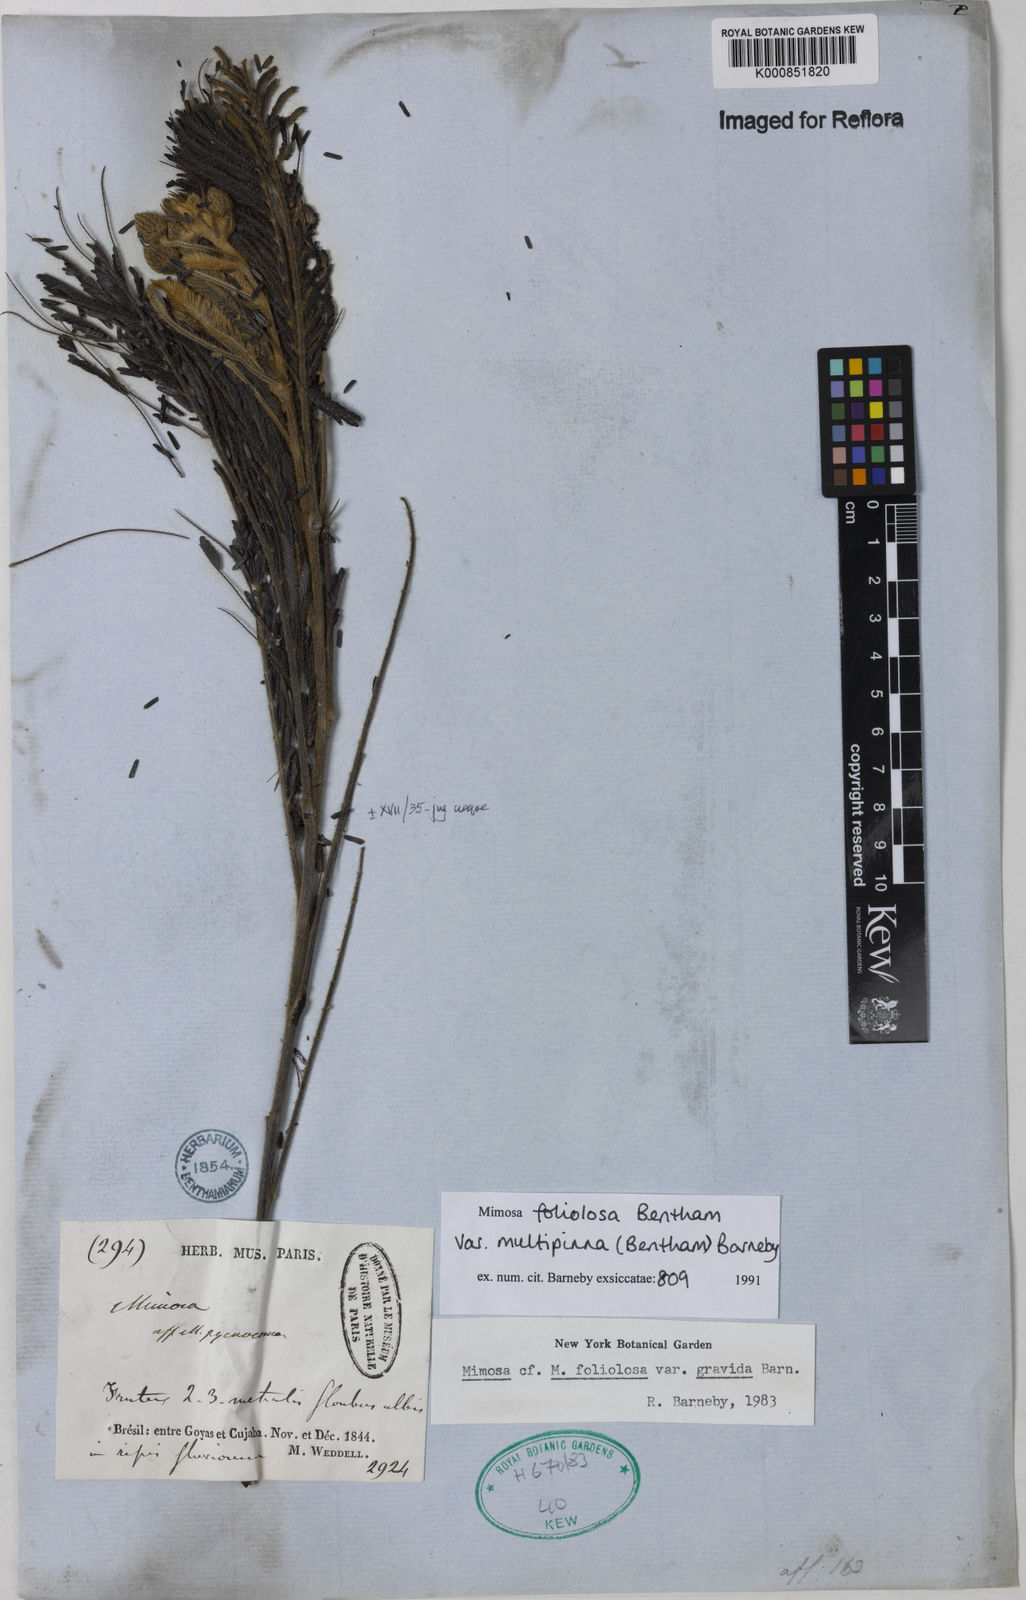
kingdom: Plantae
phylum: Tracheophyta
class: Magnoliopsida
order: Fabales
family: Fabaceae
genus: Mimosa
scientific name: Mimosa foliolosa
